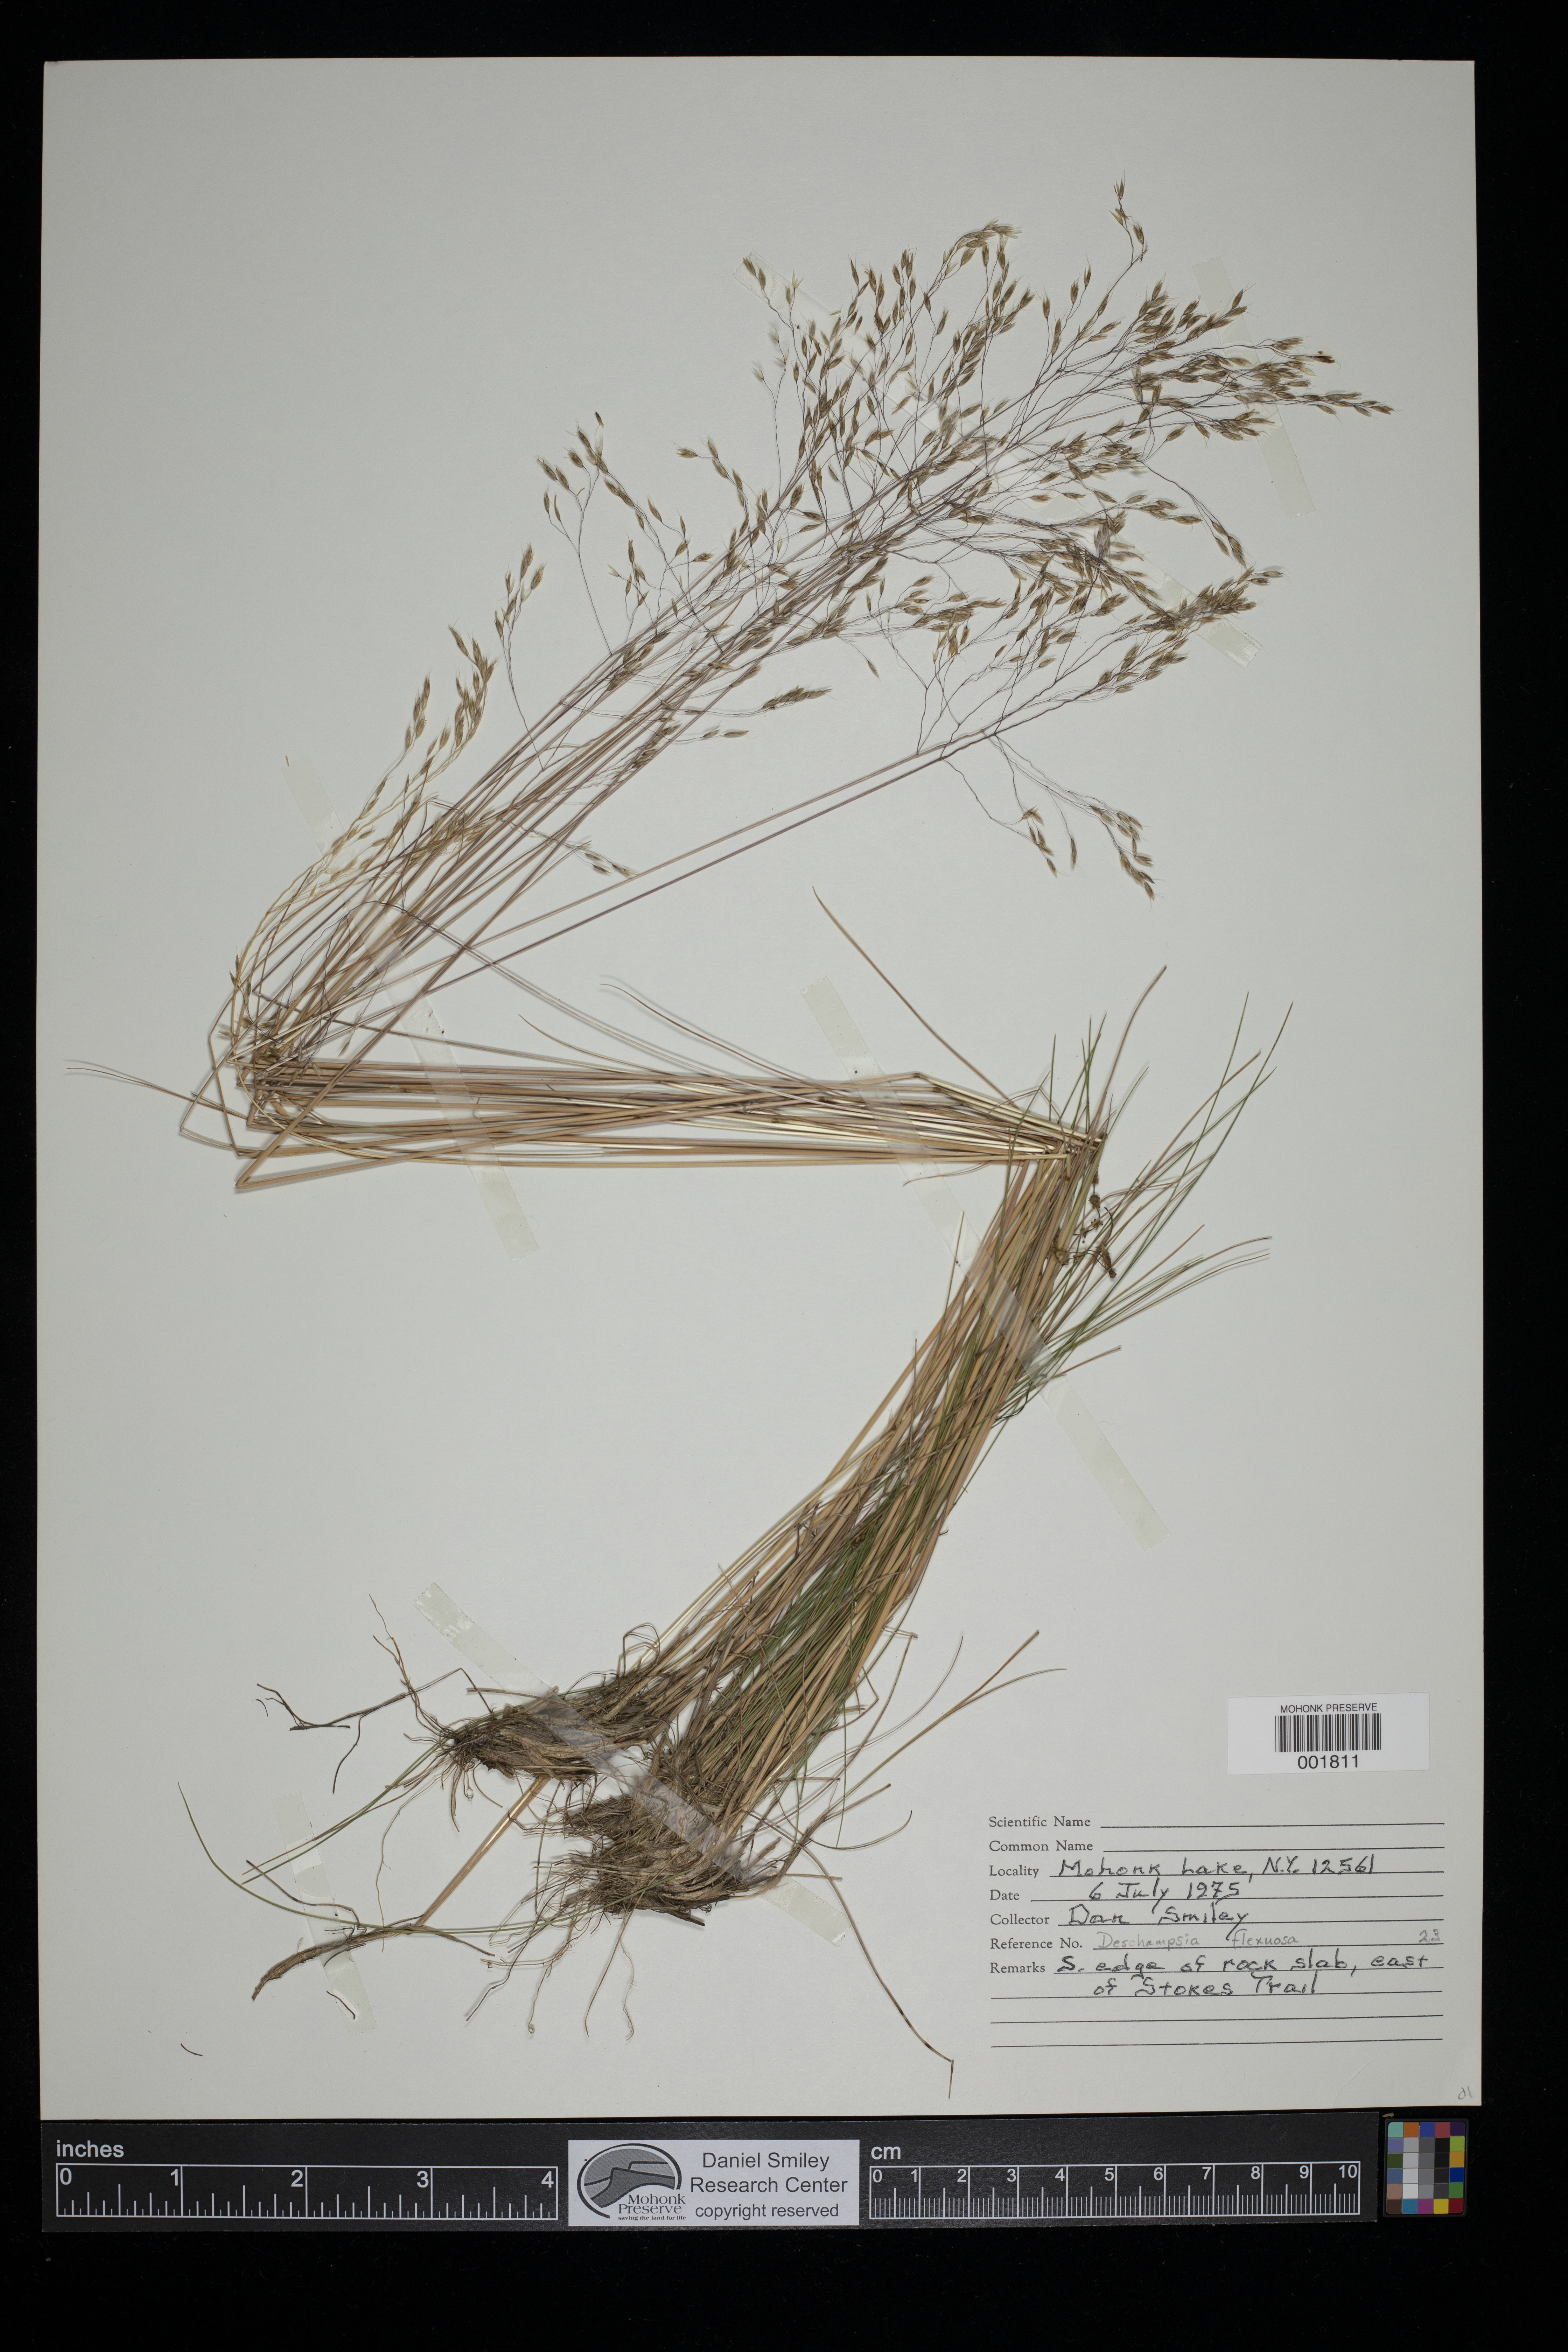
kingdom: Plantae
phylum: Tracheophyta
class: Liliopsida
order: Poales
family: Poaceae
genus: Avenella
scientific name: Avenella flexuosa
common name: Wavy hairgrass
